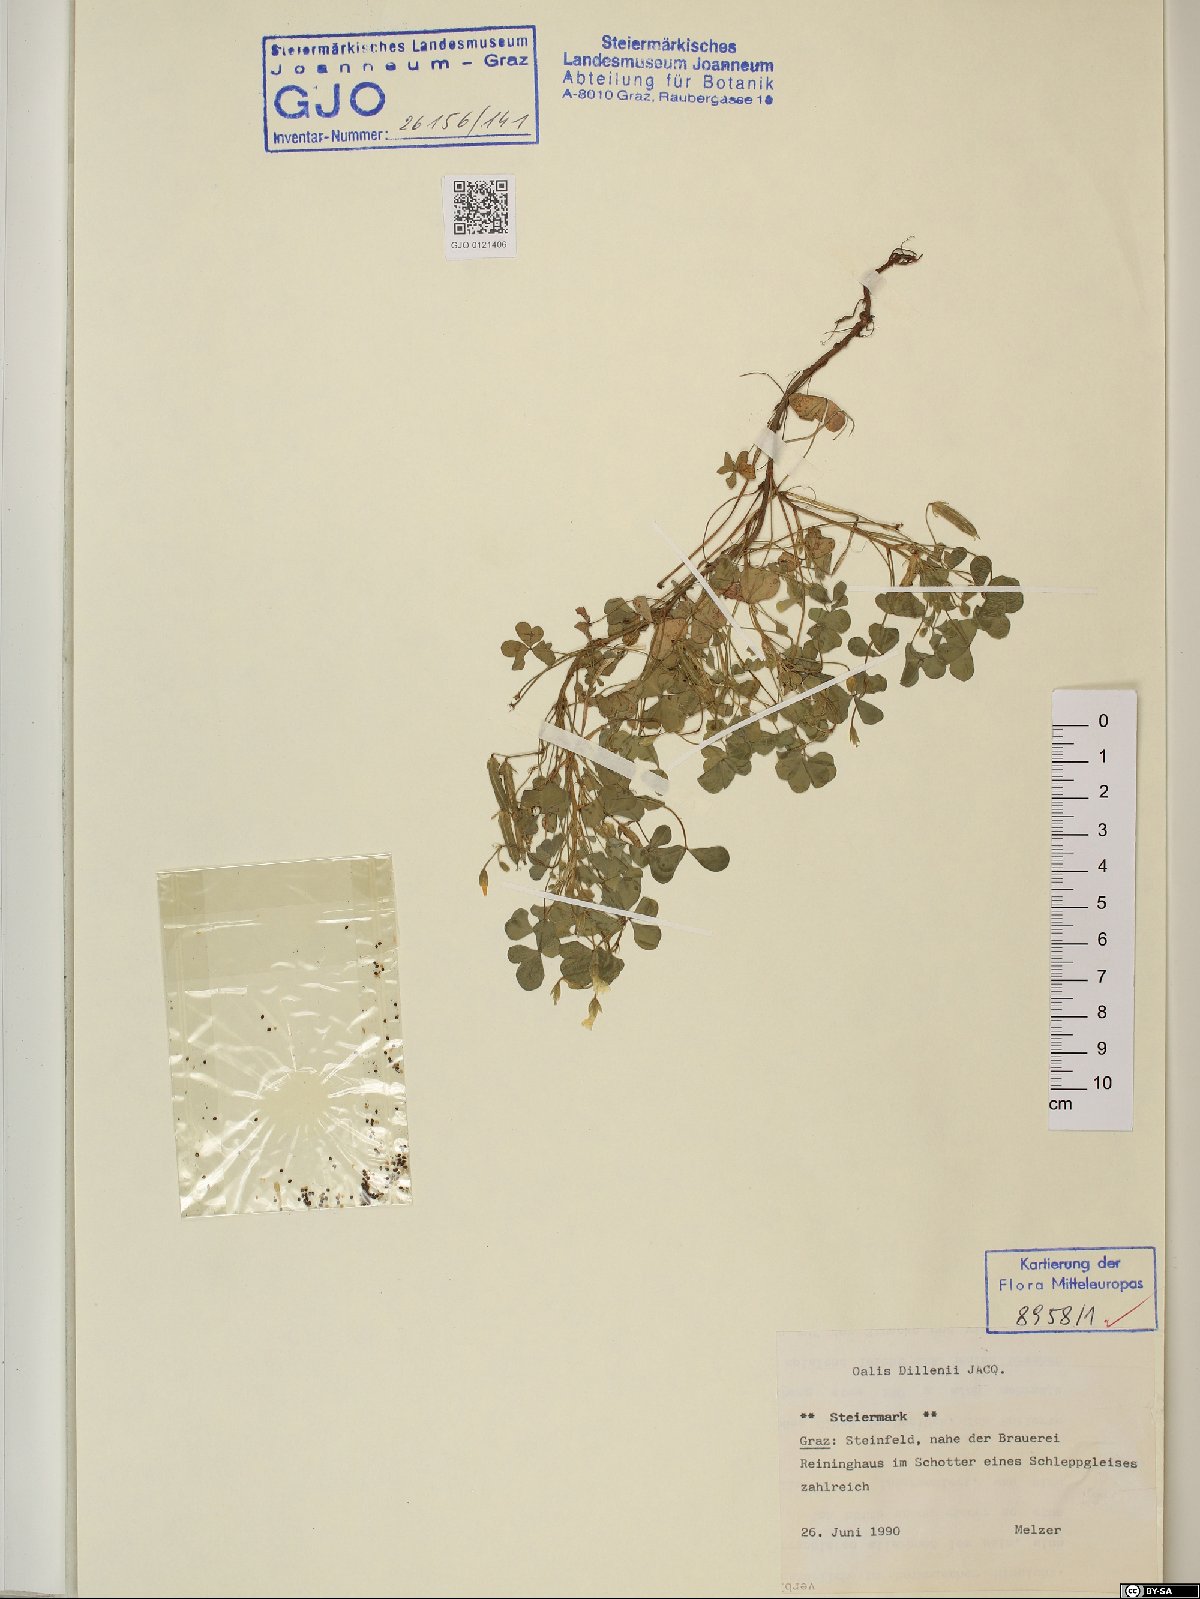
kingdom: Plantae
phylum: Tracheophyta
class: Magnoliopsida
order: Oxalidales
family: Oxalidaceae
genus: Oxalis
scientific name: Oxalis dillenii
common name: Sussex yellow-sorrel
